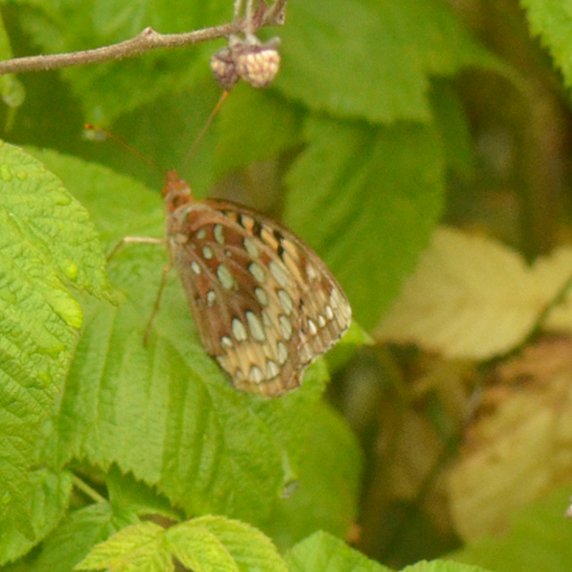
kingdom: Animalia
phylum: Arthropoda
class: Insecta
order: Lepidoptera
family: Nymphalidae
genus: Speyeria
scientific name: Speyeria cybele
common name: Great Spangled Fritillary
